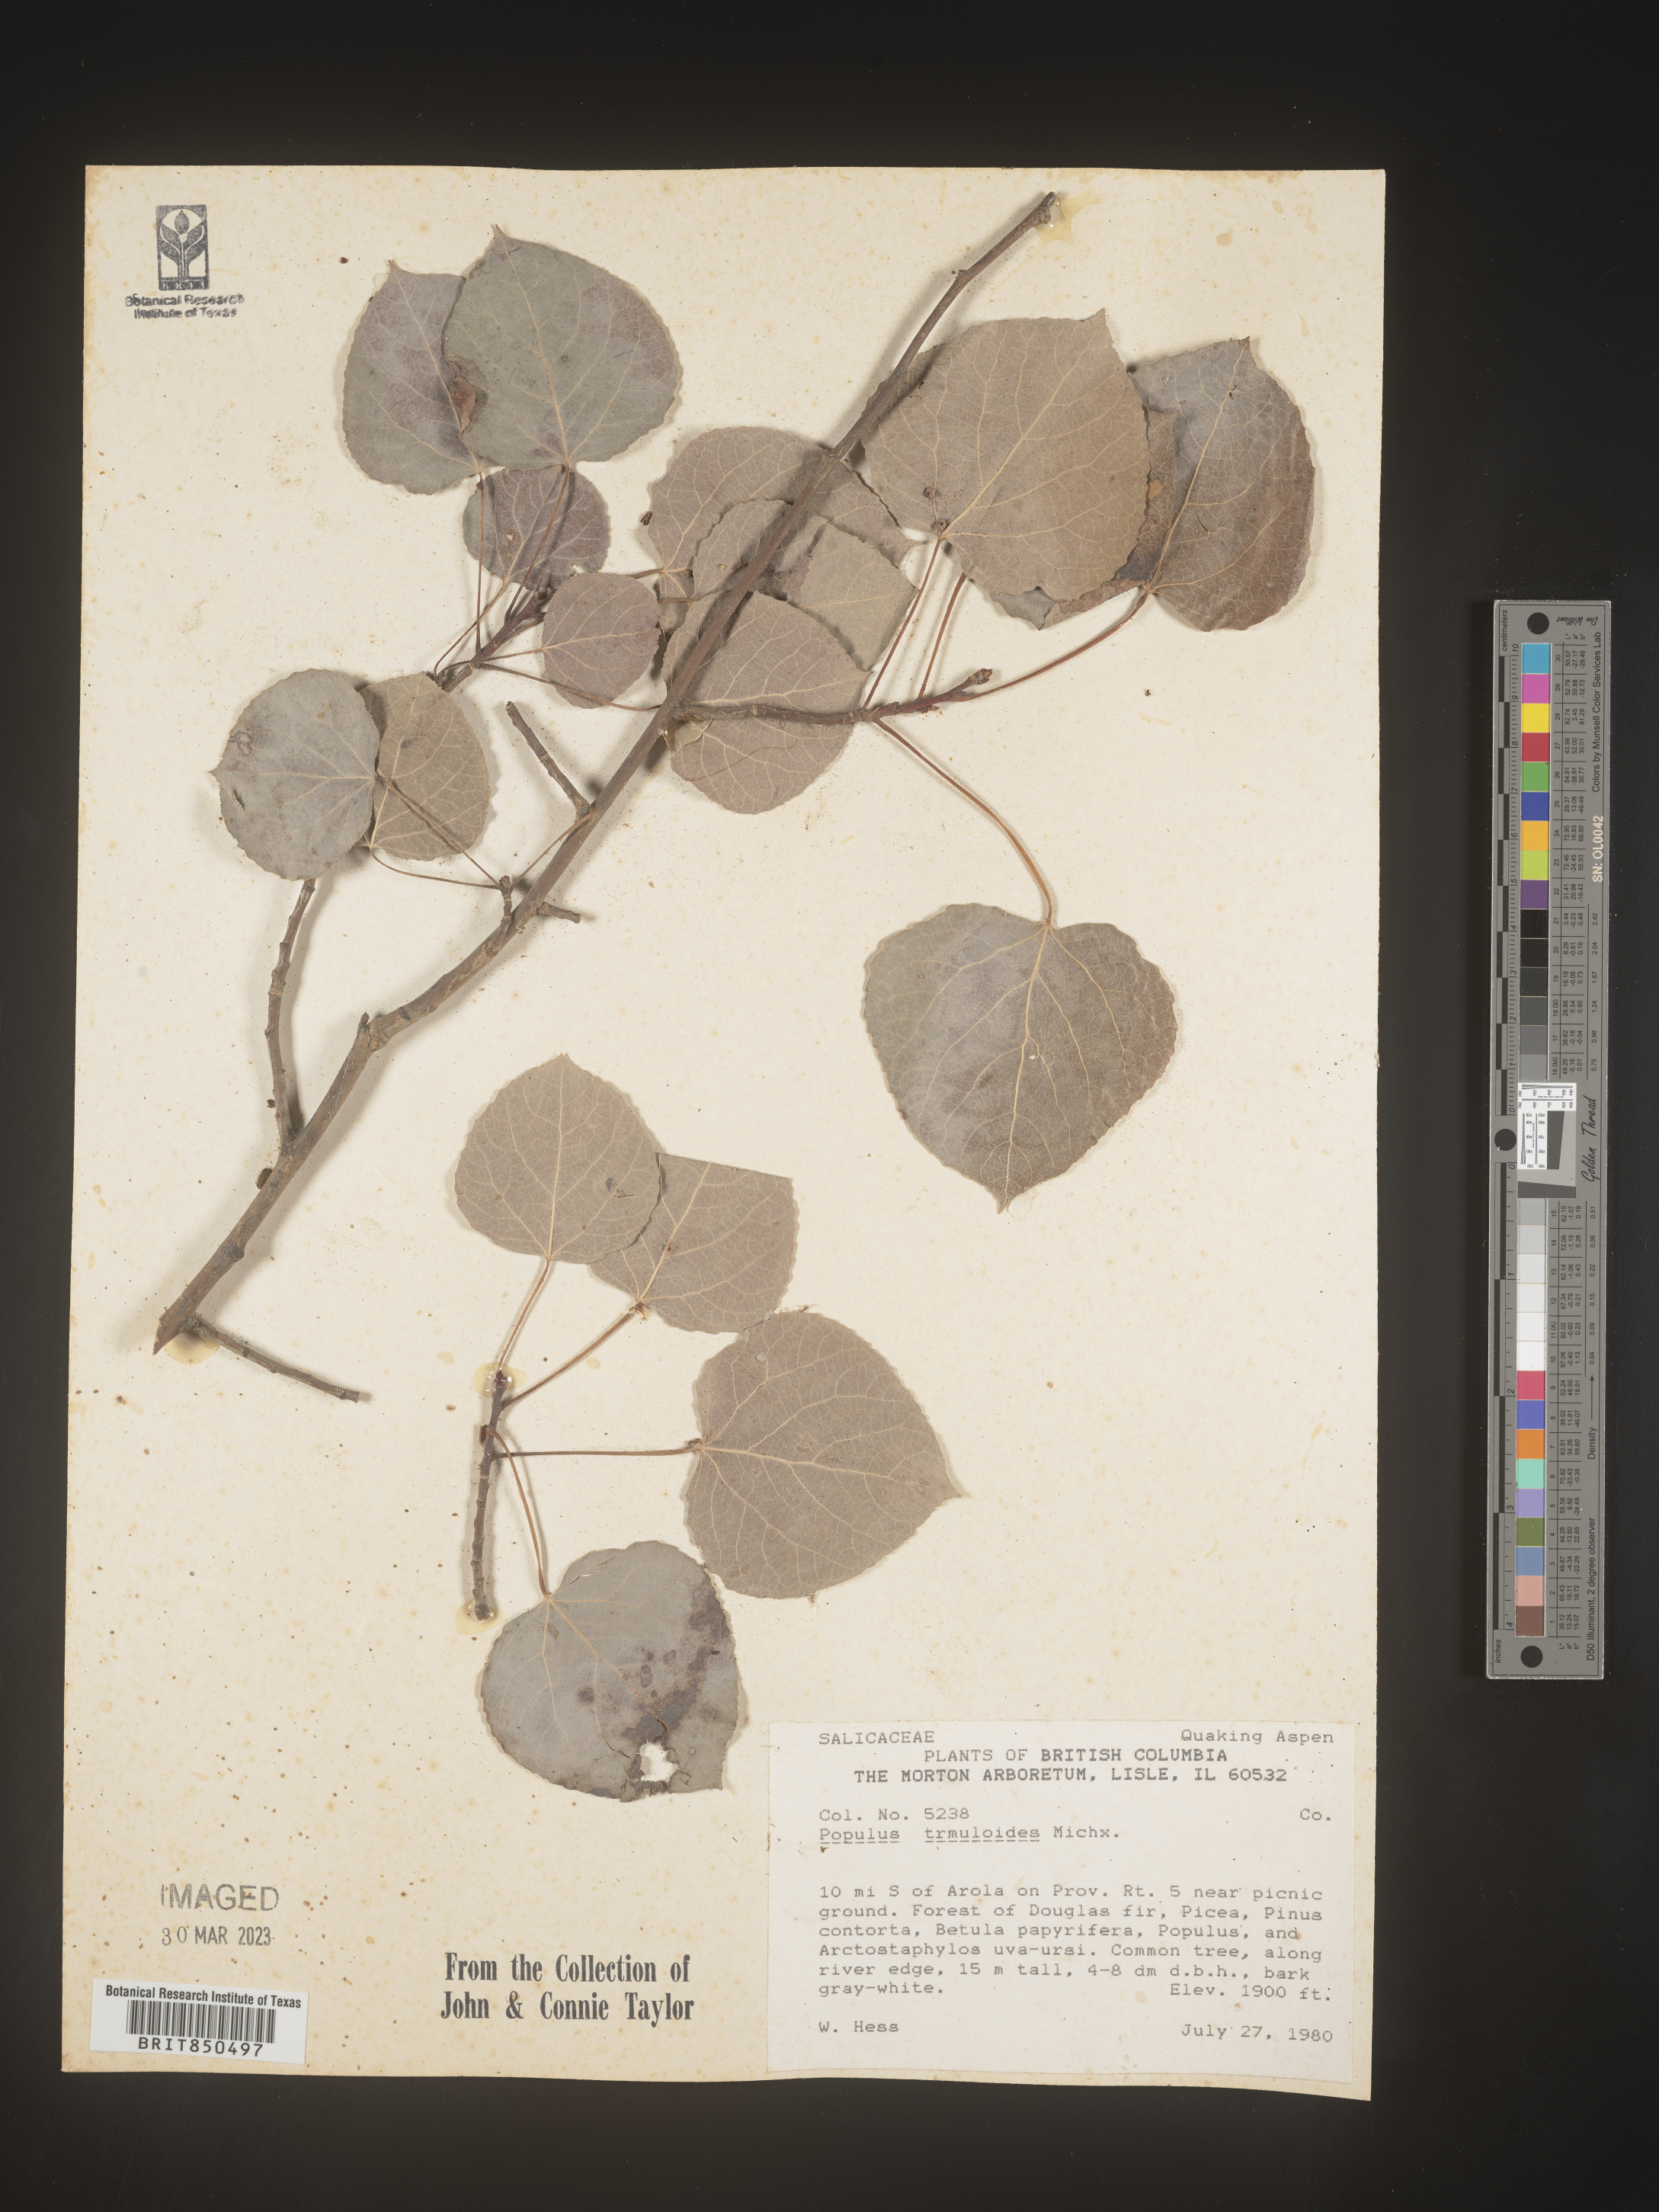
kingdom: Plantae
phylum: Tracheophyta
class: Magnoliopsida
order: Malpighiales
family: Salicaceae
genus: Populus
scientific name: Populus tremuloides
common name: Quaking aspen
